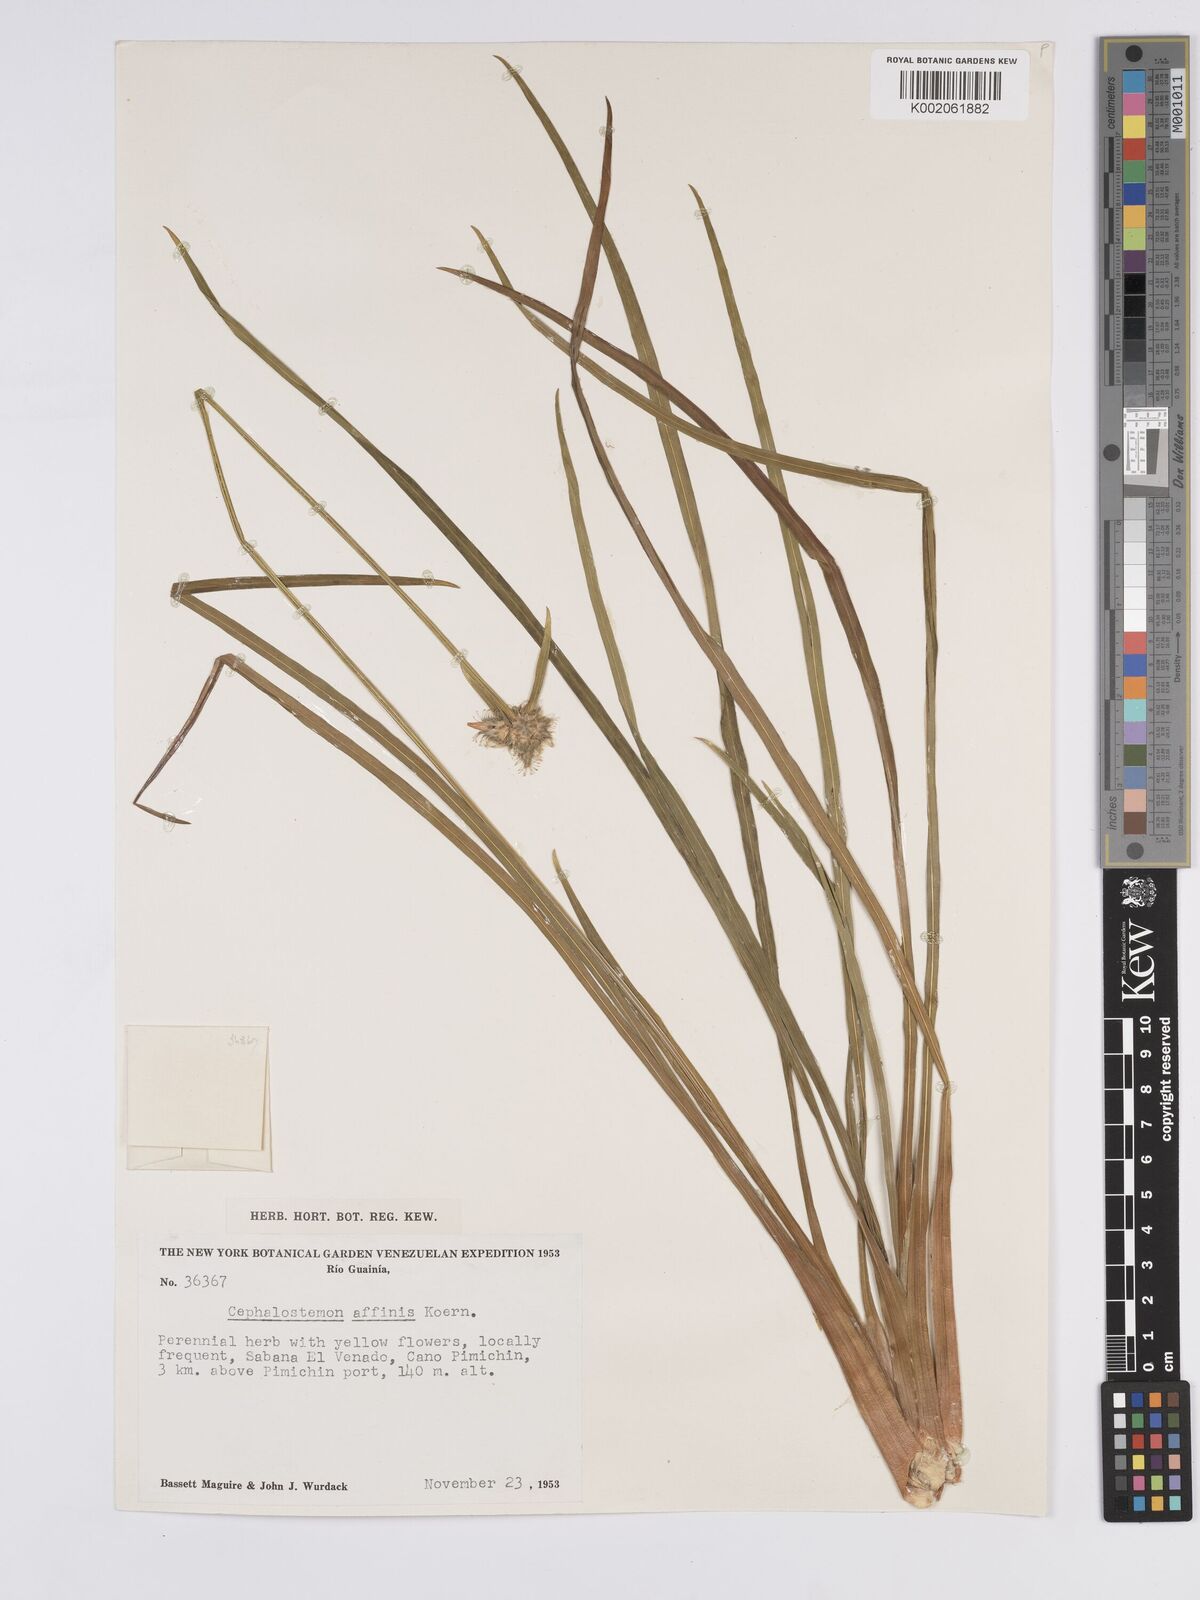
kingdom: Plantae
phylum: Tracheophyta
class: Liliopsida
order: Poales
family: Rapateaceae
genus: Cephalostemon
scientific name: Cephalostemon affinis
